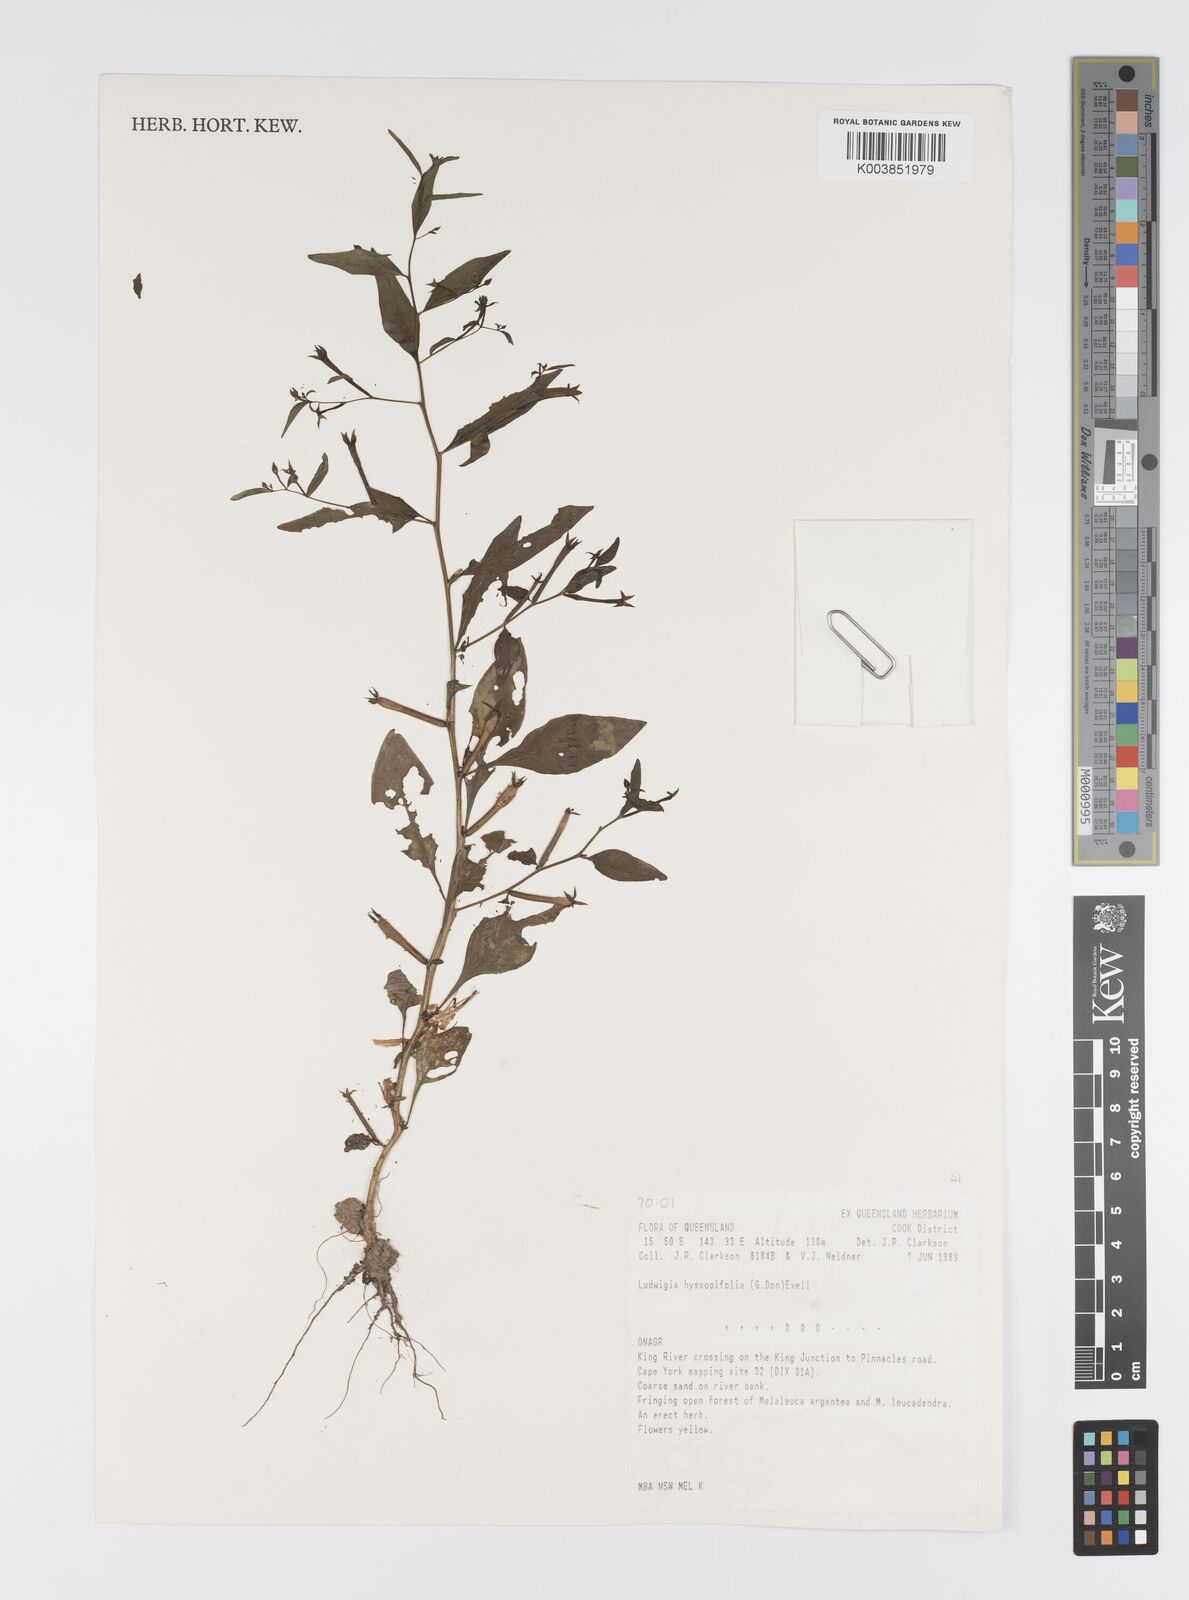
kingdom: Plantae
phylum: Tracheophyta
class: Magnoliopsida
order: Myrtales
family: Onagraceae
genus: Ludwigia
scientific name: Ludwigia hyssopifolia
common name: Linear leaf water primrose
